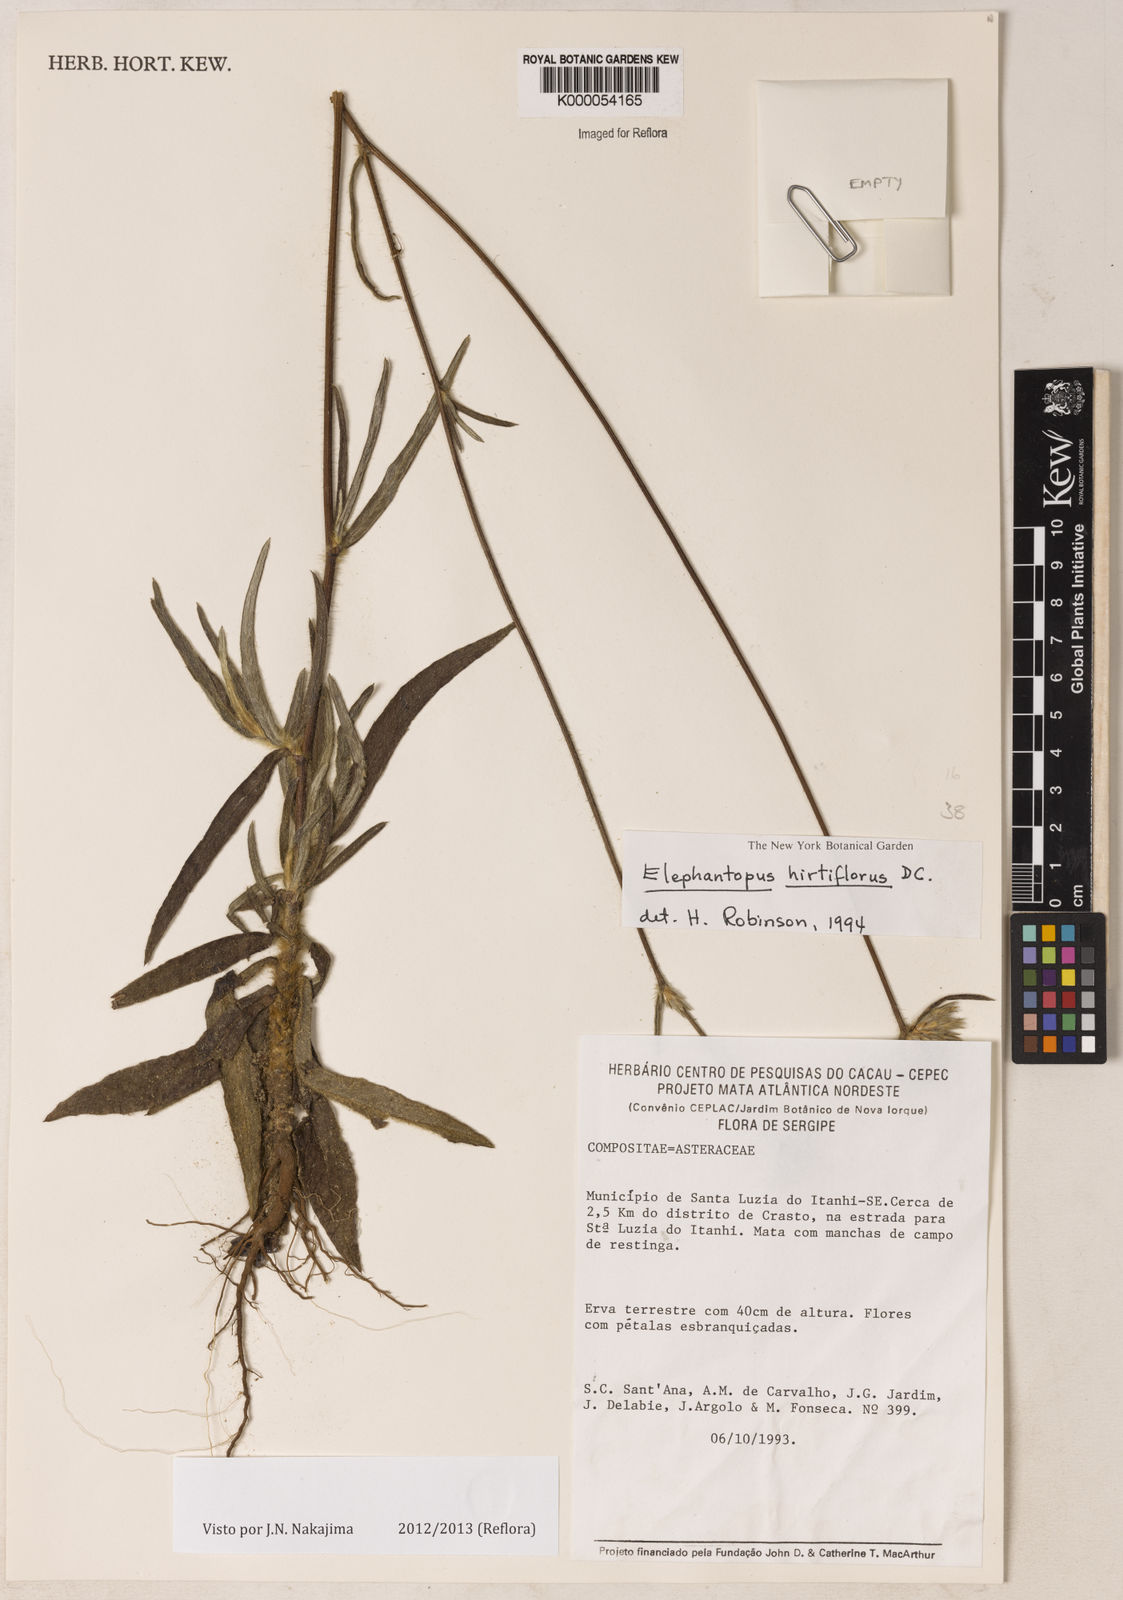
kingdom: Plantae
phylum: Tracheophyta
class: Magnoliopsida
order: Asterales
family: Asteraceae
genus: Elephantopus
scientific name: Elephantopus hirtiflorus
